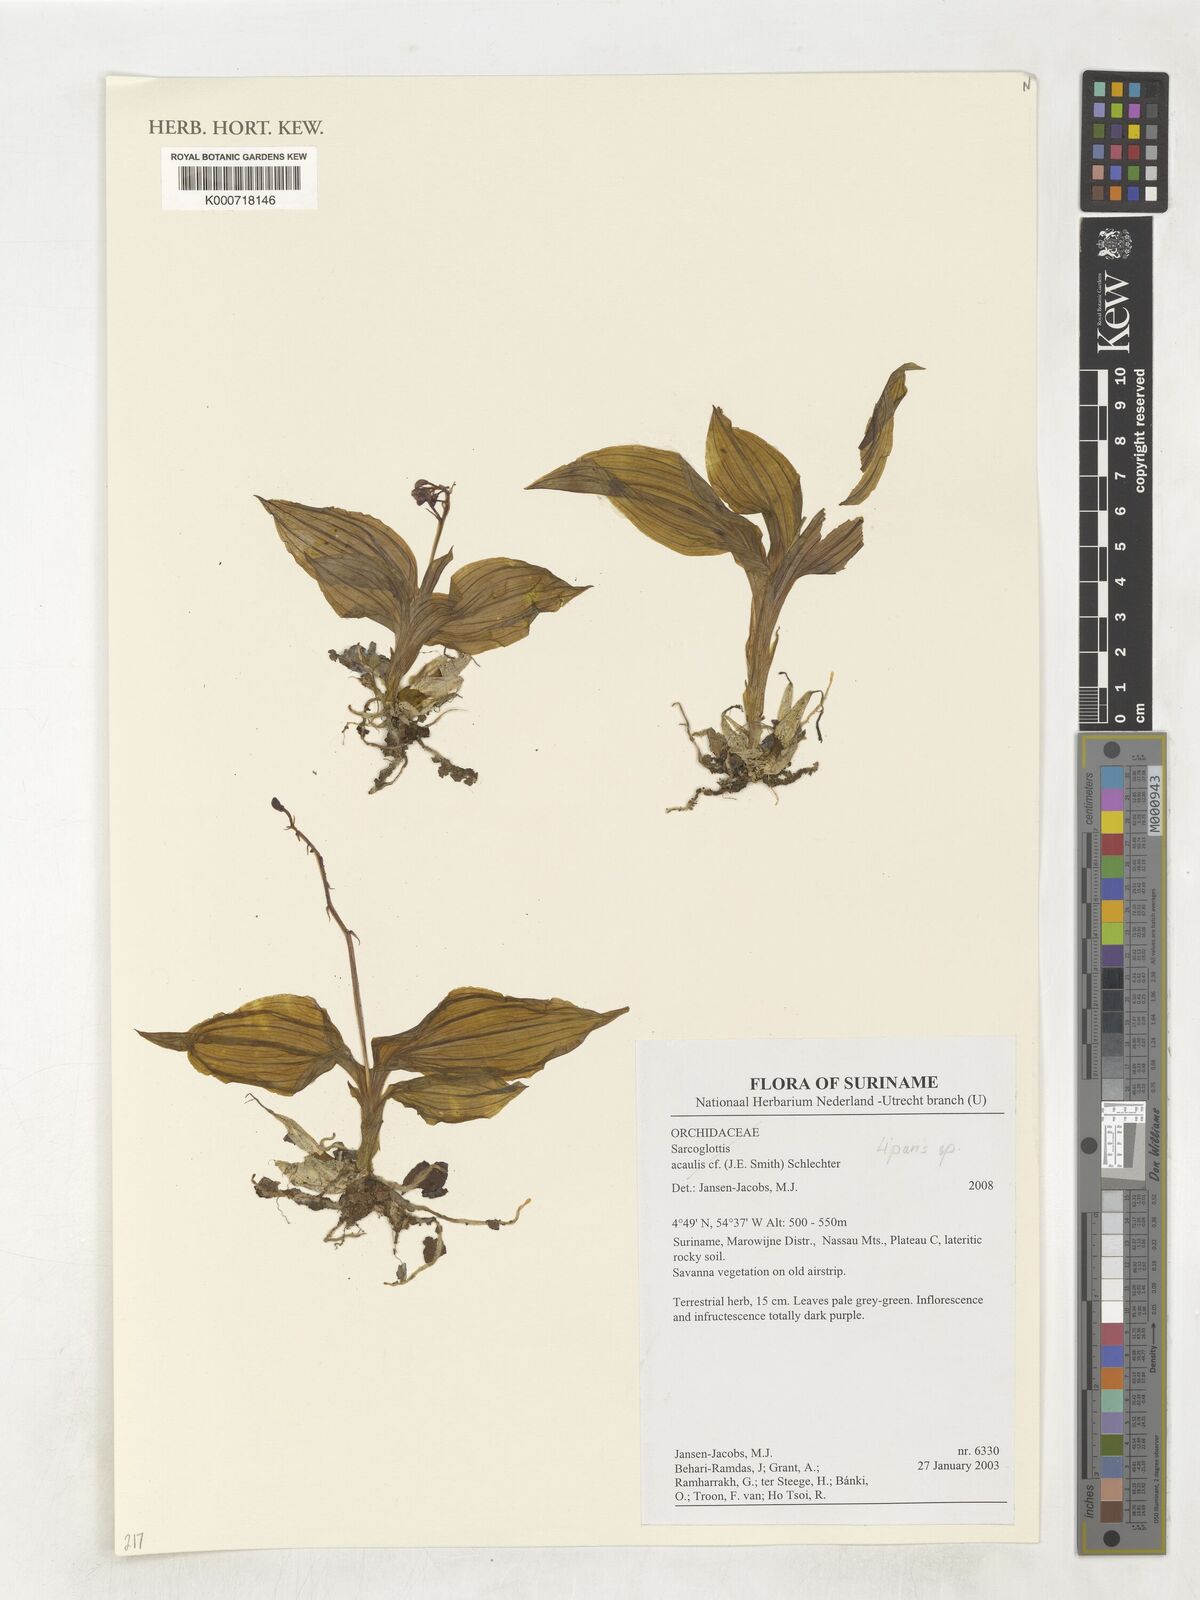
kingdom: Plantae
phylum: Tracheophyta
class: Liliopsida
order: Asparagales
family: Orchidaceae
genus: Liparis
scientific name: Liparis
